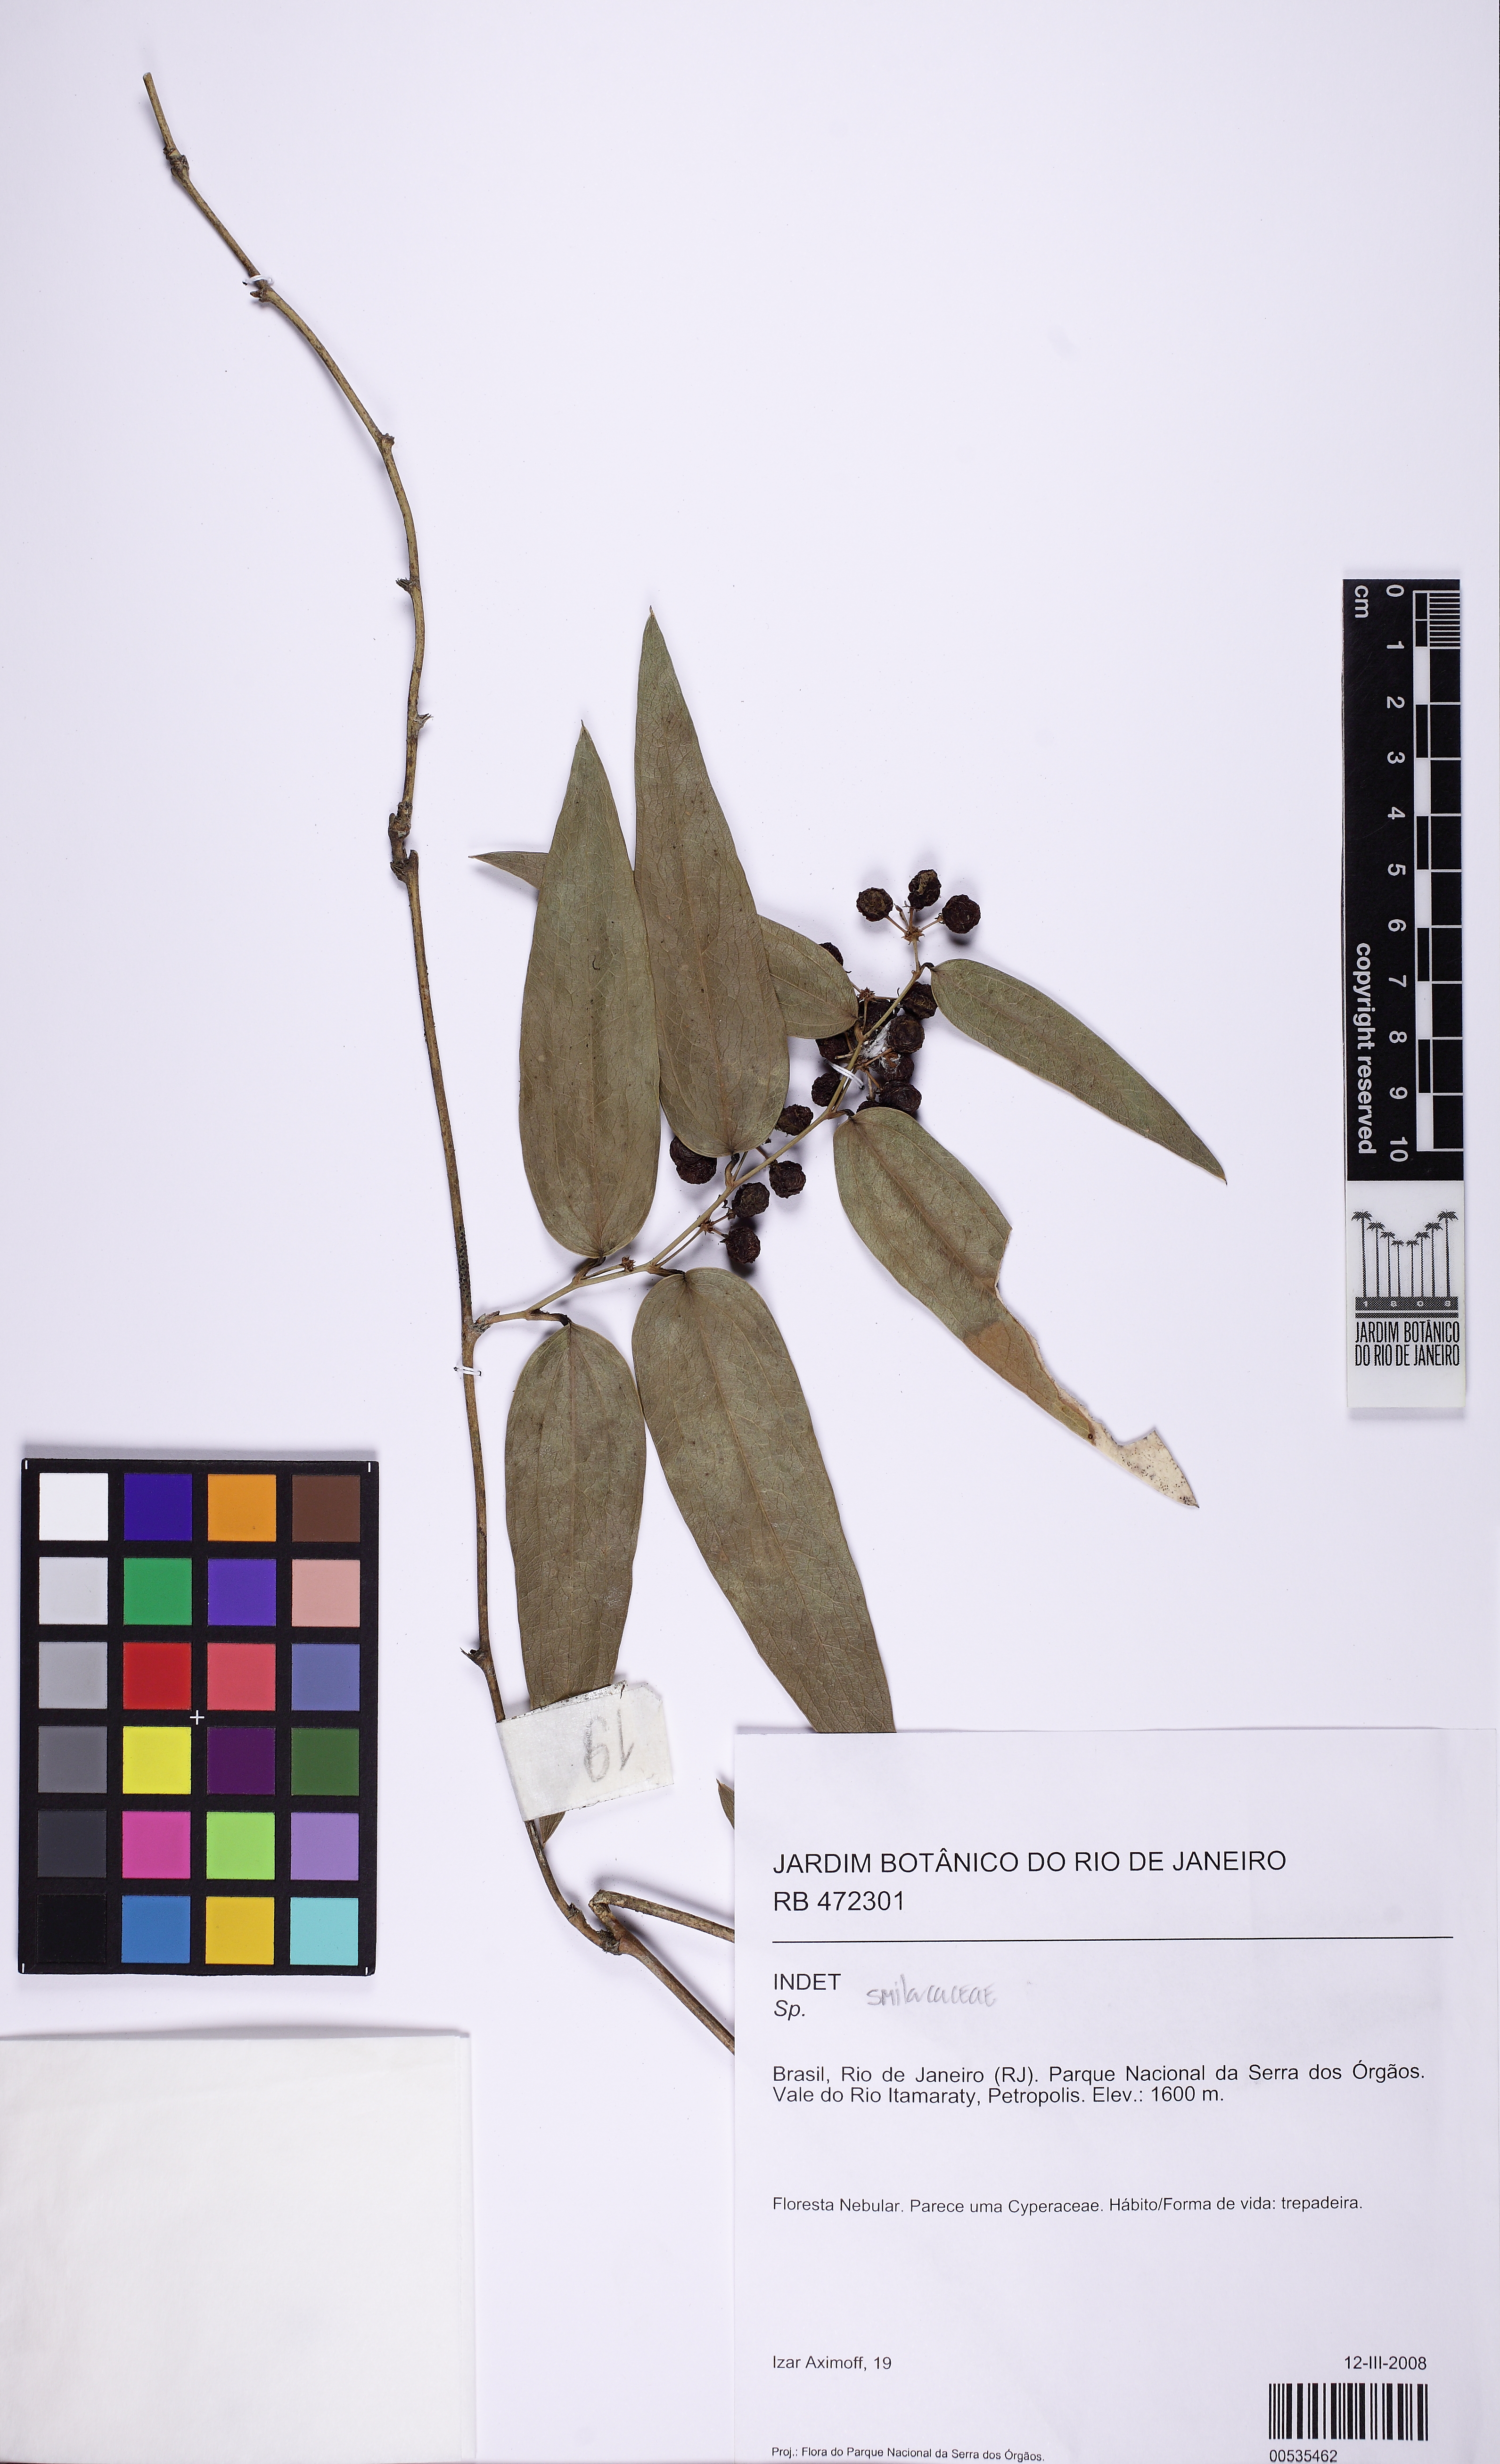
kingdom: Plantae
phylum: Tracheophyta
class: Liliopsida
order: Liliales
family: Smilacaceae
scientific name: Smilacaceae
